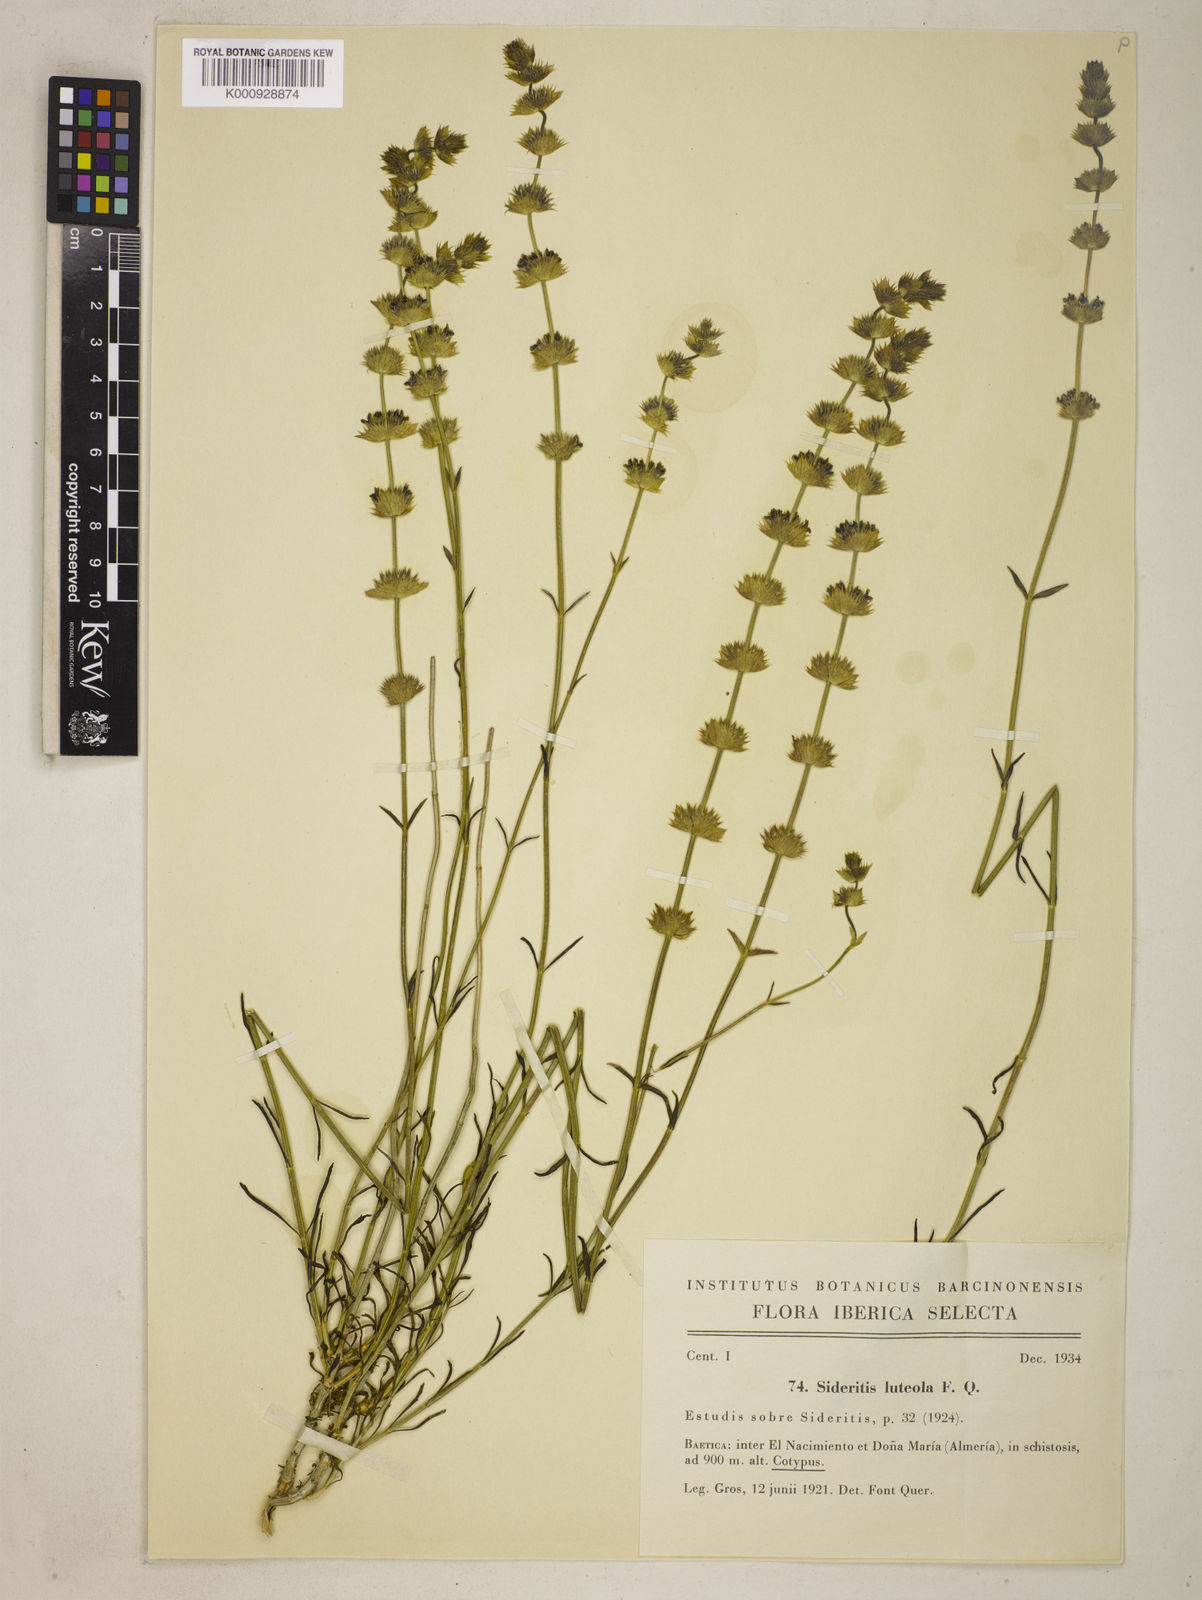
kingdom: Plantae
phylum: Tracheophyta
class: Magnoliopsida
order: Lamiales
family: Lamiaceae
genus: Sideritis
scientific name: Sideritis arborescens
